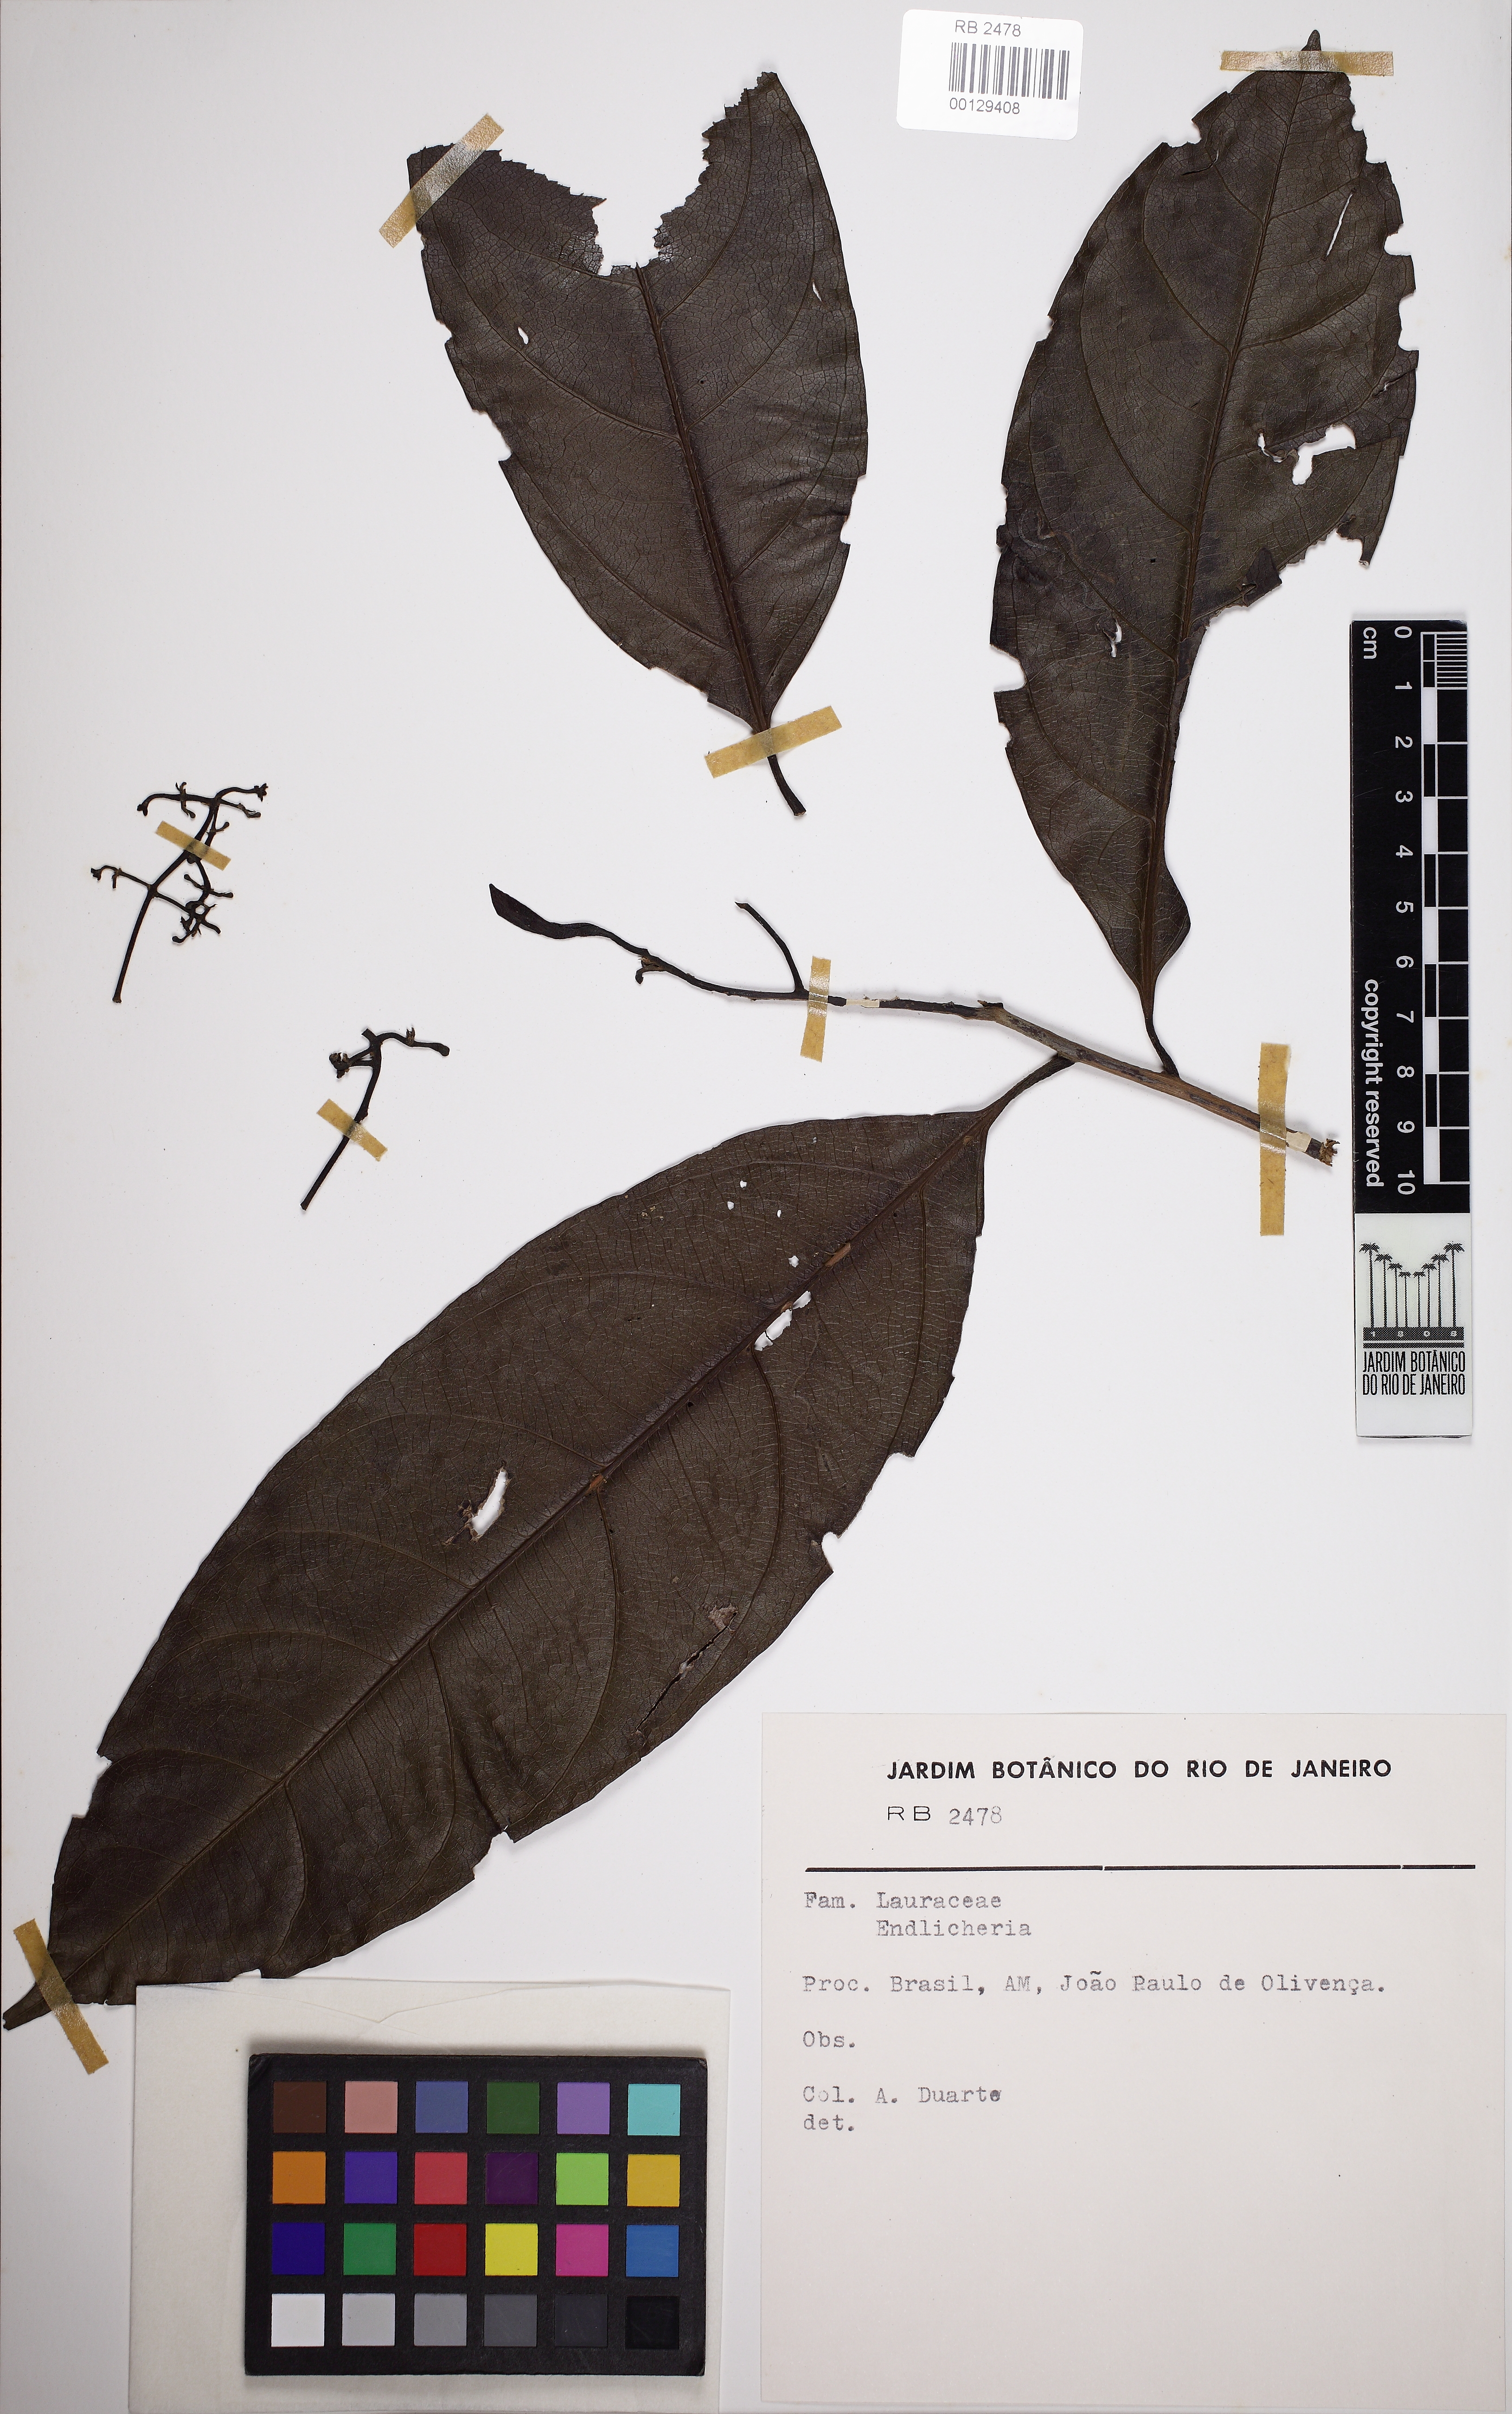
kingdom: Plantae
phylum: Tracheophyta
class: Magnoliopsida
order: Laurales
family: Lauraceae
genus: Endlicheria
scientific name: Endlicheria
